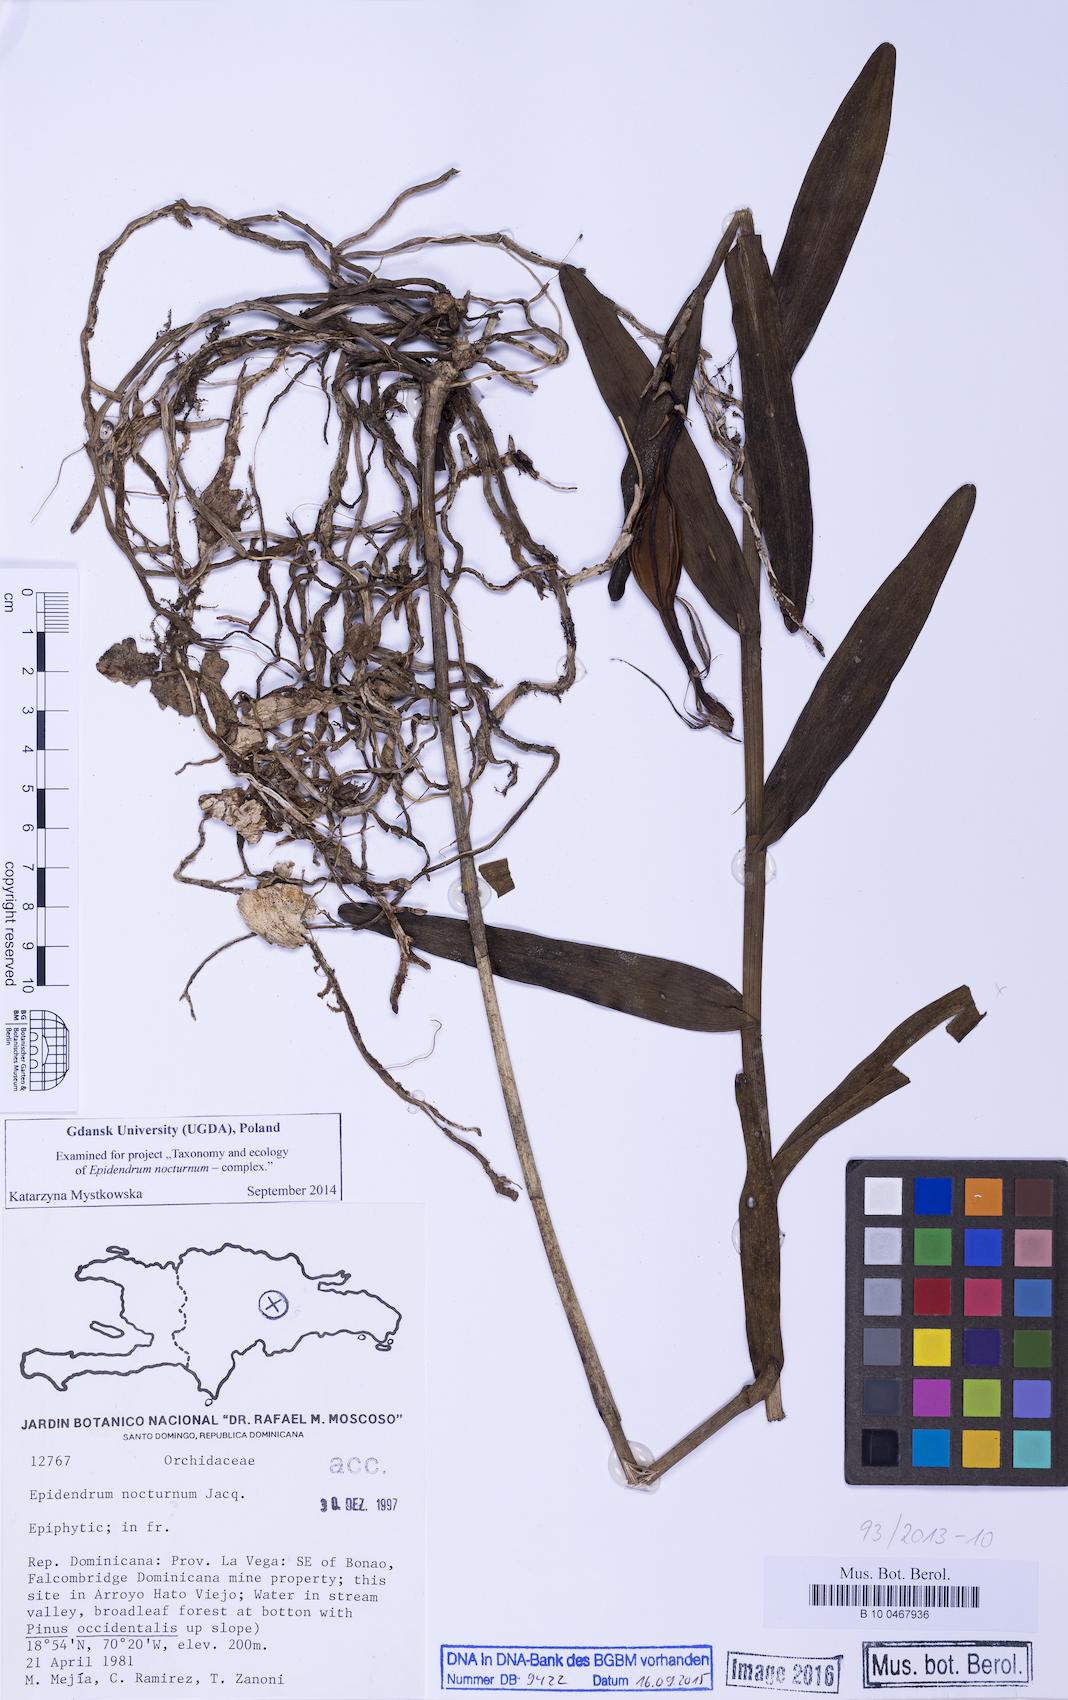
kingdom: Plantae
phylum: Tracheophyta
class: Liliopsida
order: Asparagales
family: Orchidaceae
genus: Epidendrum
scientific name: Epidendrum nocturnum
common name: Night scented orchid
